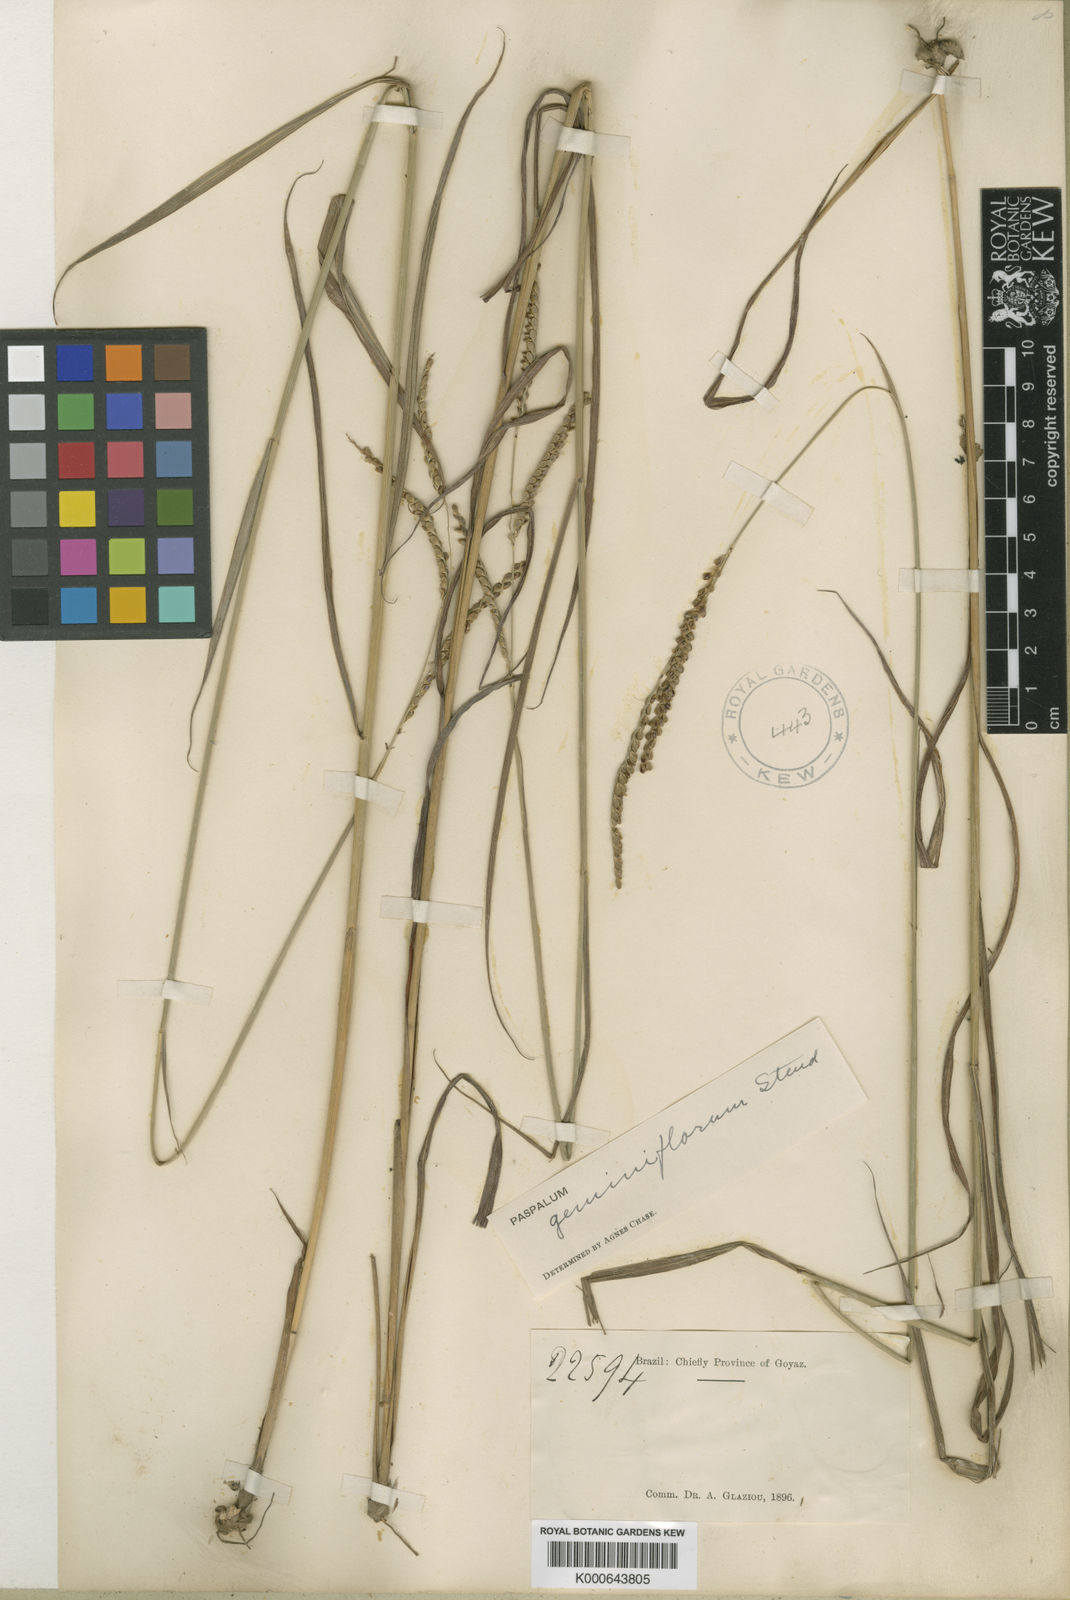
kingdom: Plantae
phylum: Tracheophyta
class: Liliopsida
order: Poales
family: Poaceae
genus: Paspalum
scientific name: Paspalum geminiflorum
